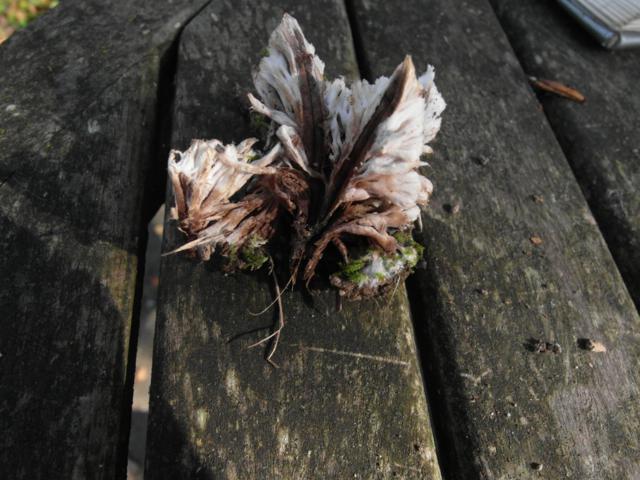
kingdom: Fungi
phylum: Basidiomycota
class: Agaricomycetes
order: Thelephorales
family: Thelephoraceae
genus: Thelephora
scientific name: Thelephora penicillata
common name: fladtrådt frynsesvamp
